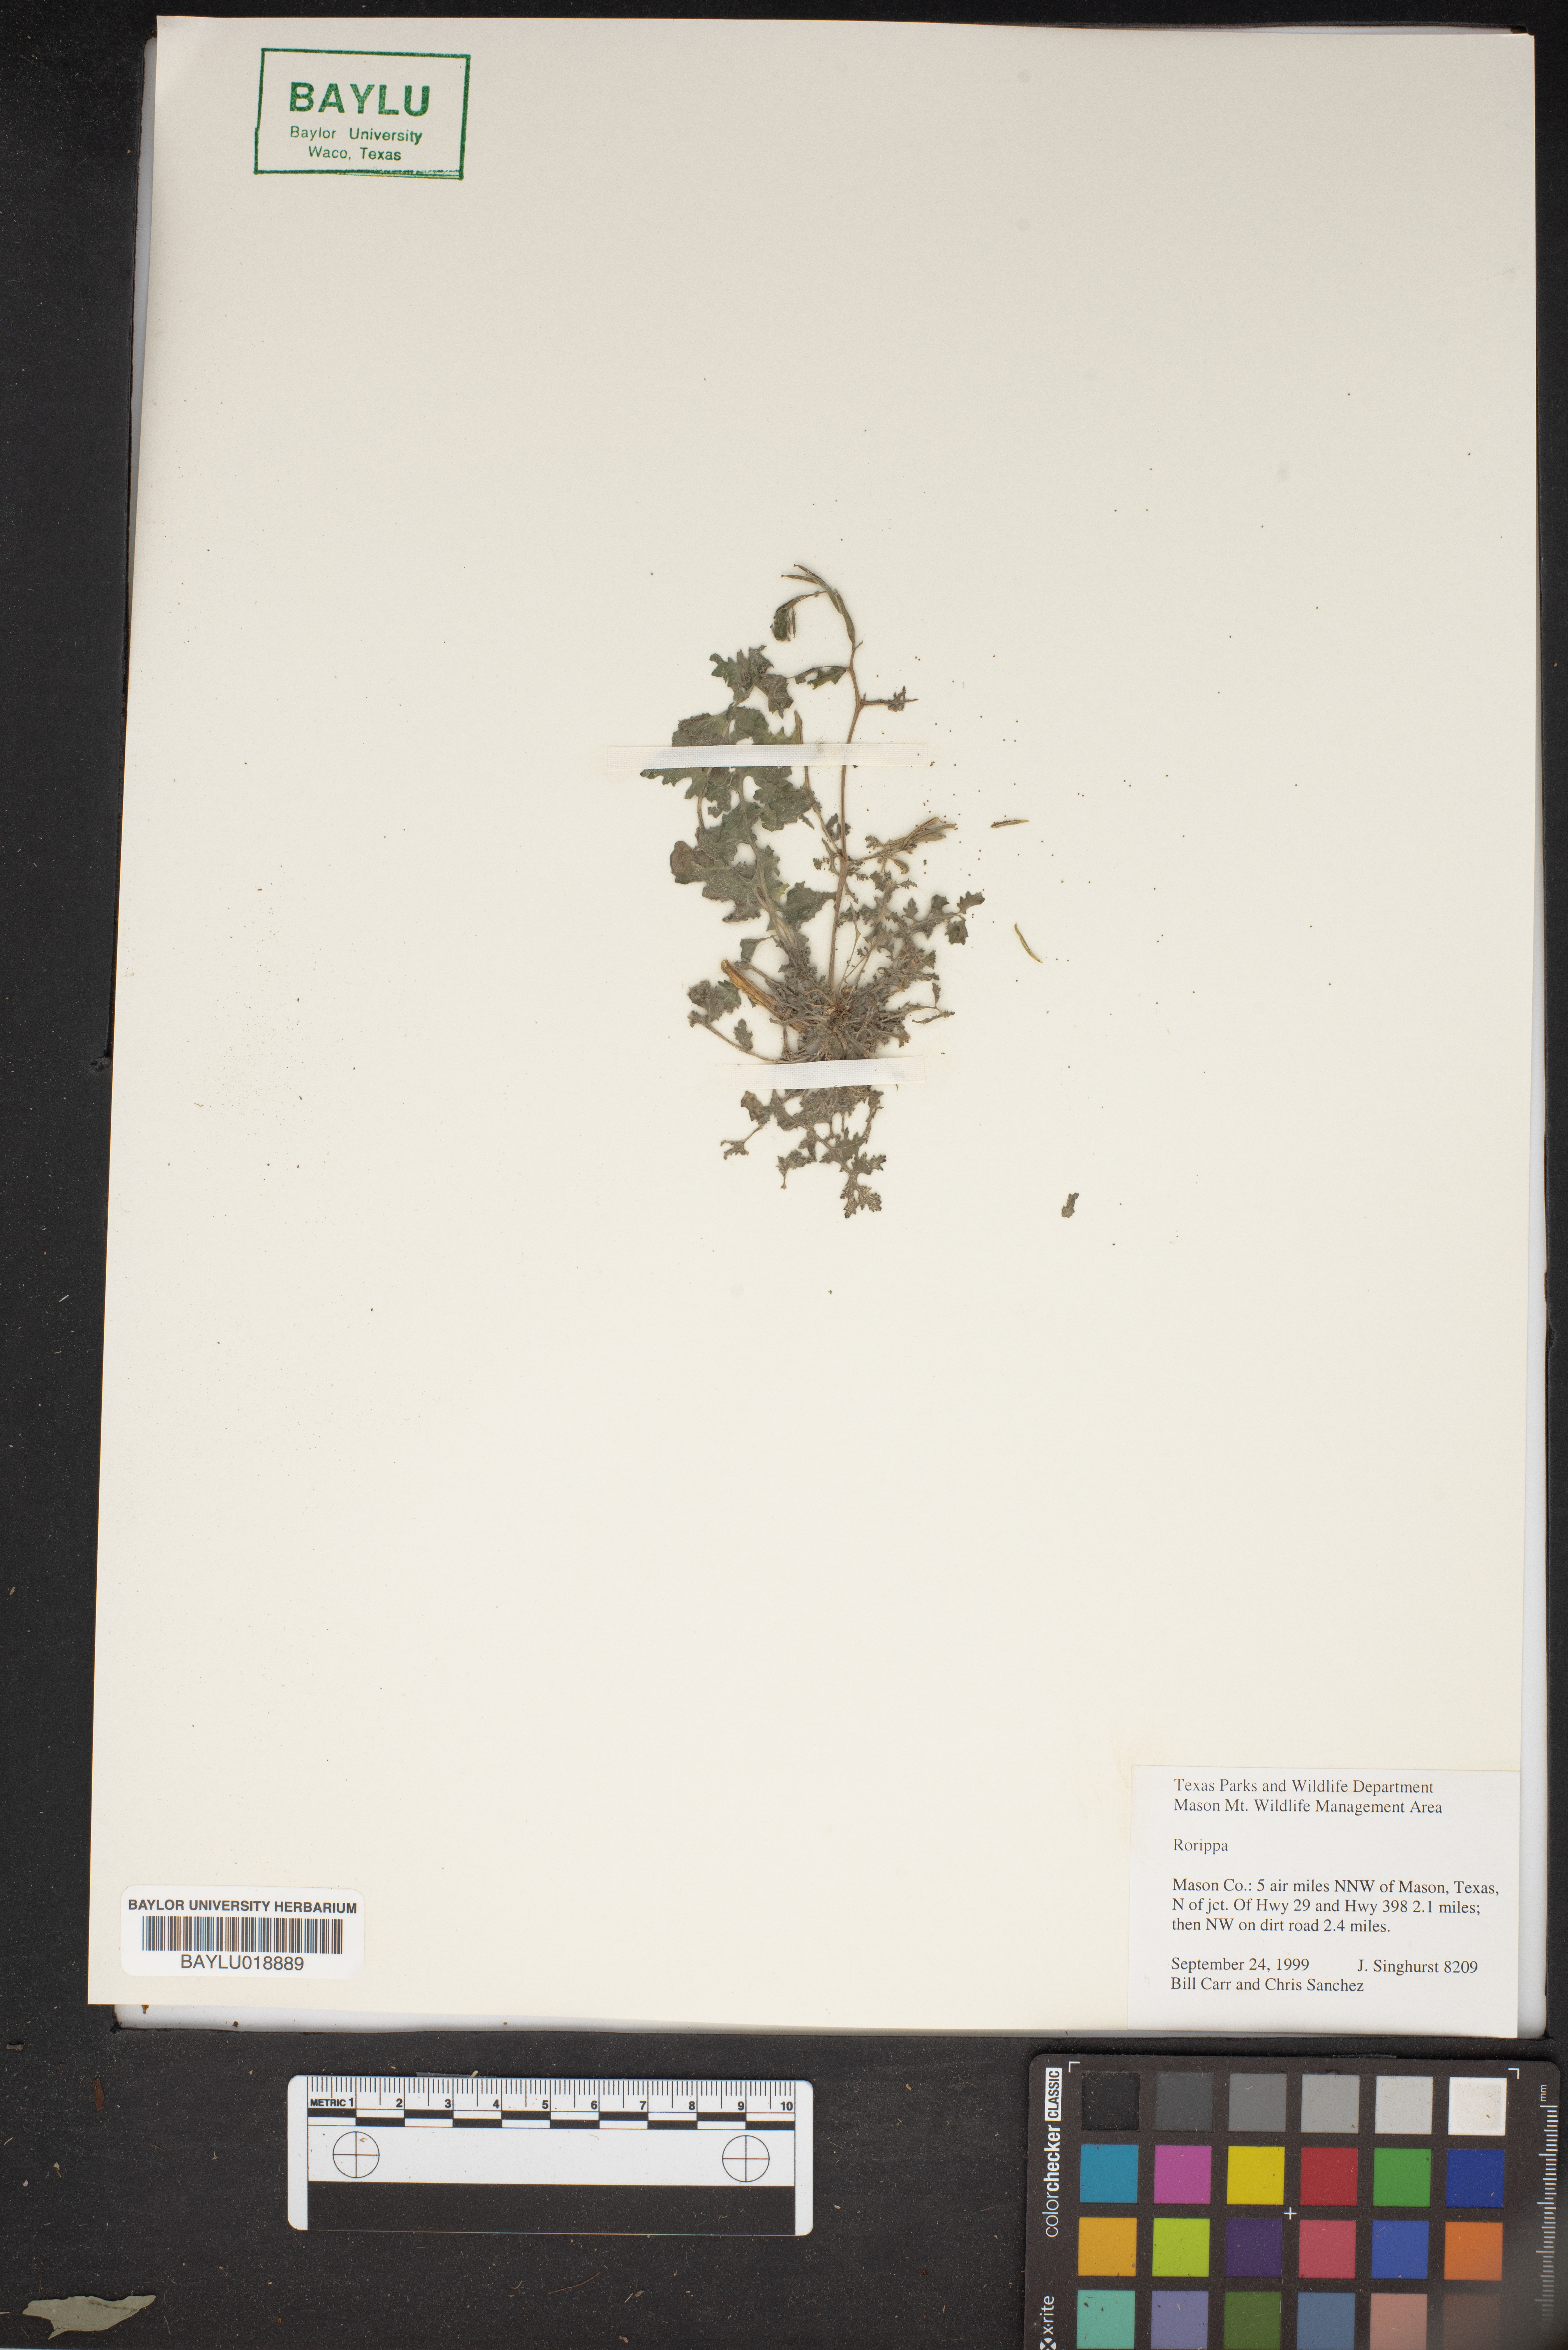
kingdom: Plantae
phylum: Tracheophyta
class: Magnoliopsida
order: Brassicales
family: Brassicaceae
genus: Rorippa
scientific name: Rorippa
